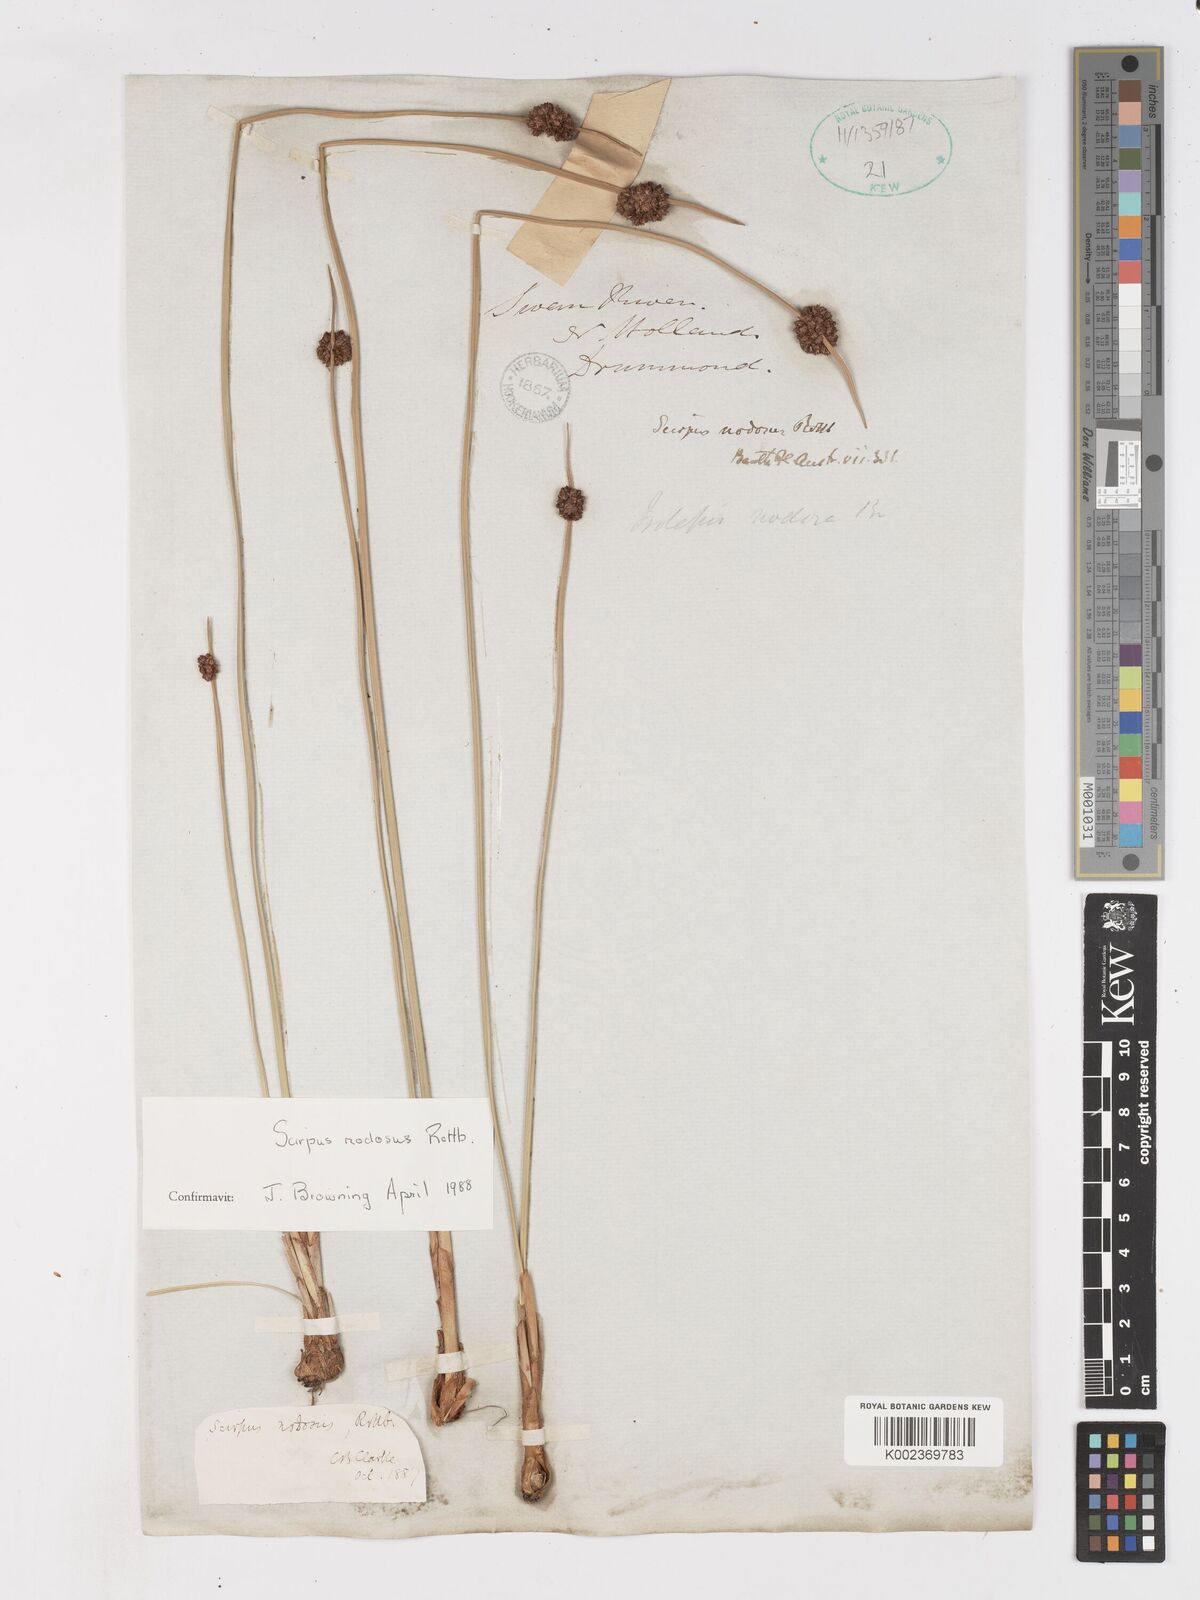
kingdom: Plantae
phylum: Tracheophyta
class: Liliopsida
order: Poales
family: Cyperaceae
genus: Ficinia
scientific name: Ficinia nodosa
